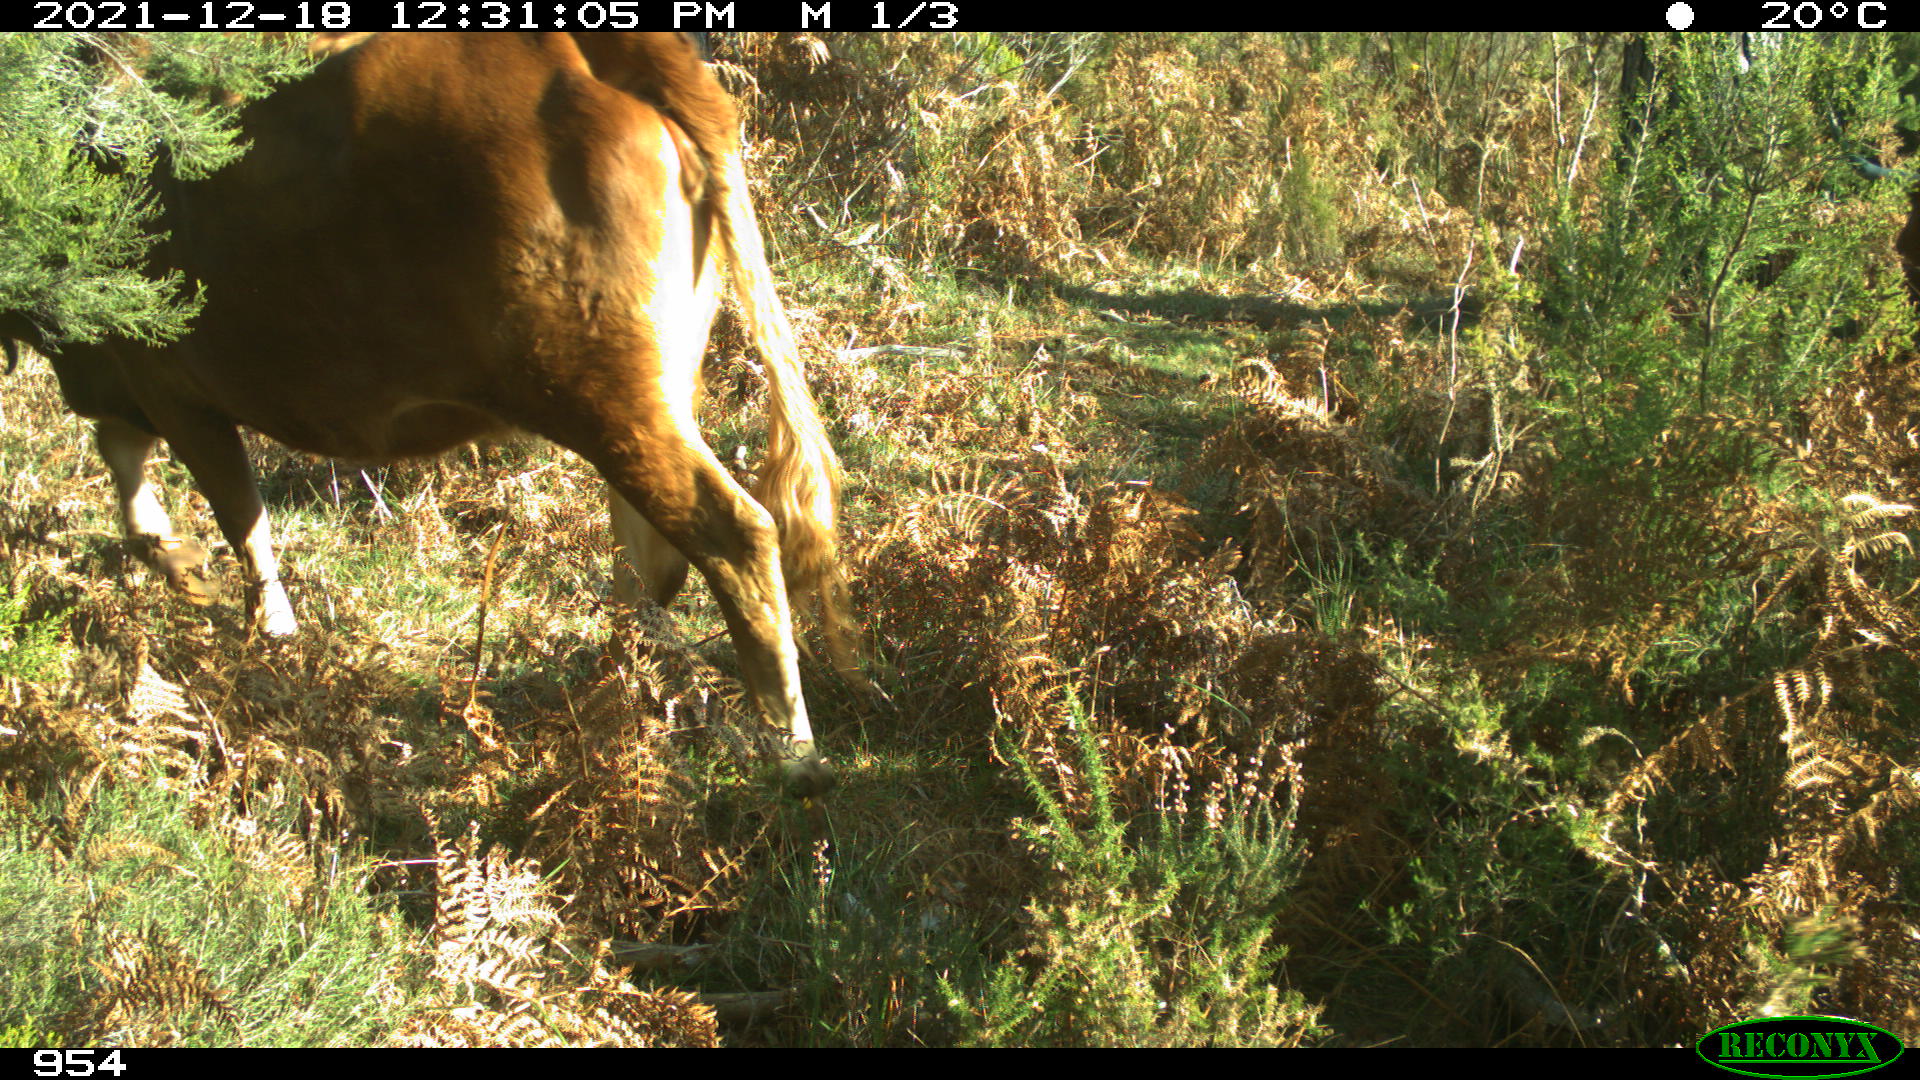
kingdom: Animalia
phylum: Chordata
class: Mammalia
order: Artiodactyla
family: Bovidae
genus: Bos
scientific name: Bos taurus
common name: Domesticated cattle
